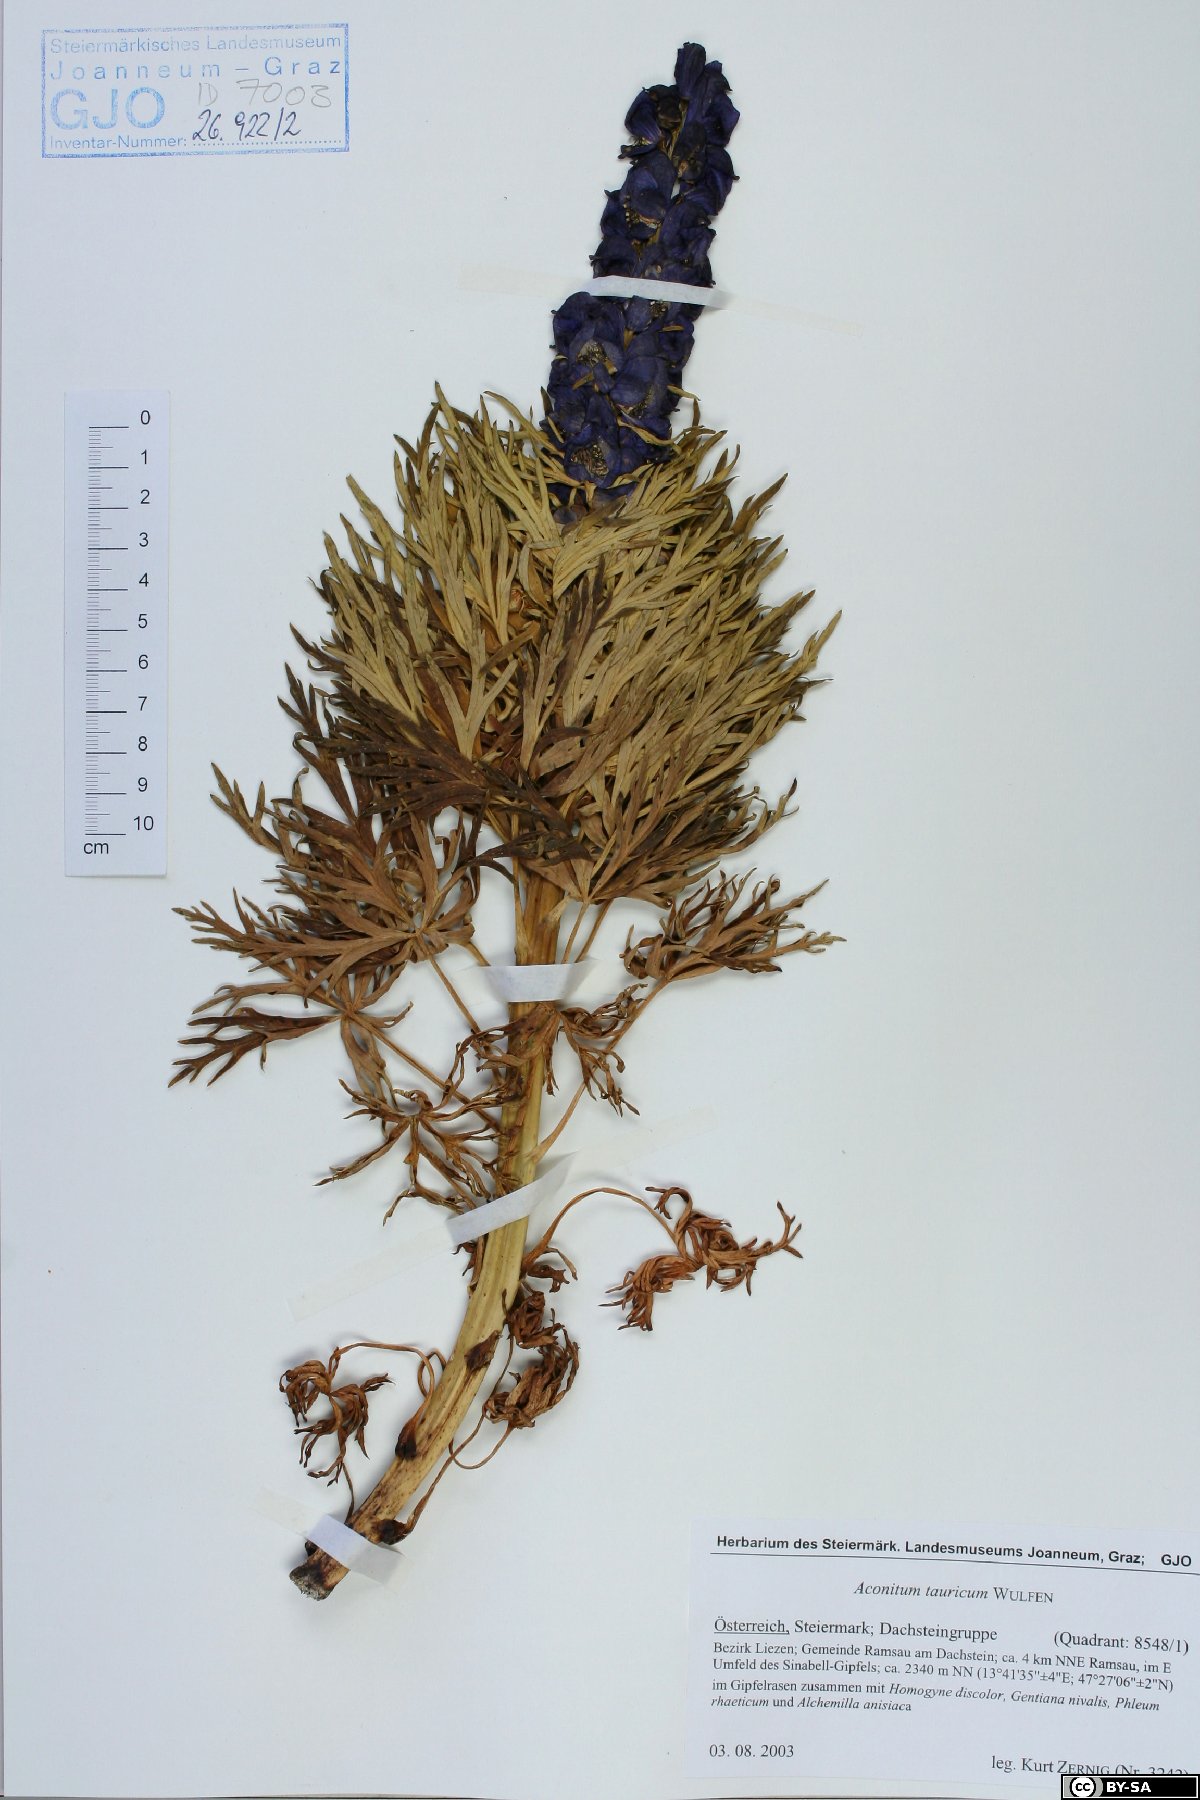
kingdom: Plantae
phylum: Tracheophyta
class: Magnoliopsida
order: Ranunculales
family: Ranunculaceae
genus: Aconitum
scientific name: Aconitum tauricum
